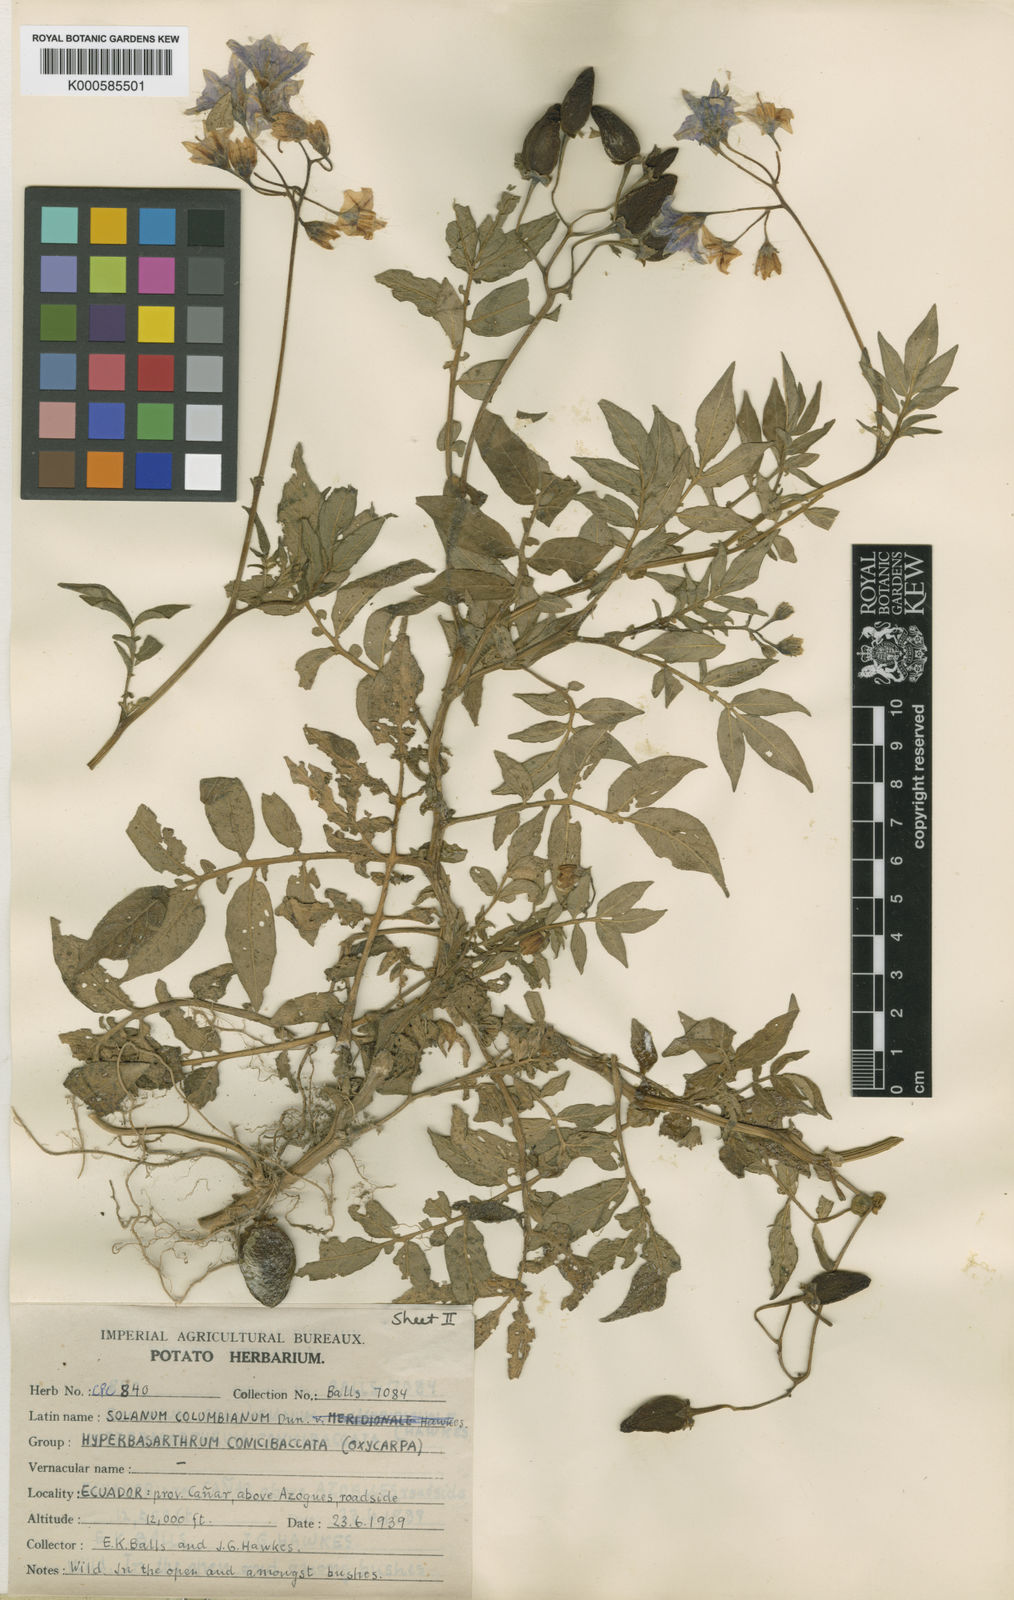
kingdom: Plantae
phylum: Tracheophyta
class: Magnoliopsida
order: Solanales
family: Solanaceae
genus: Solanum
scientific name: Solanum colombianum
